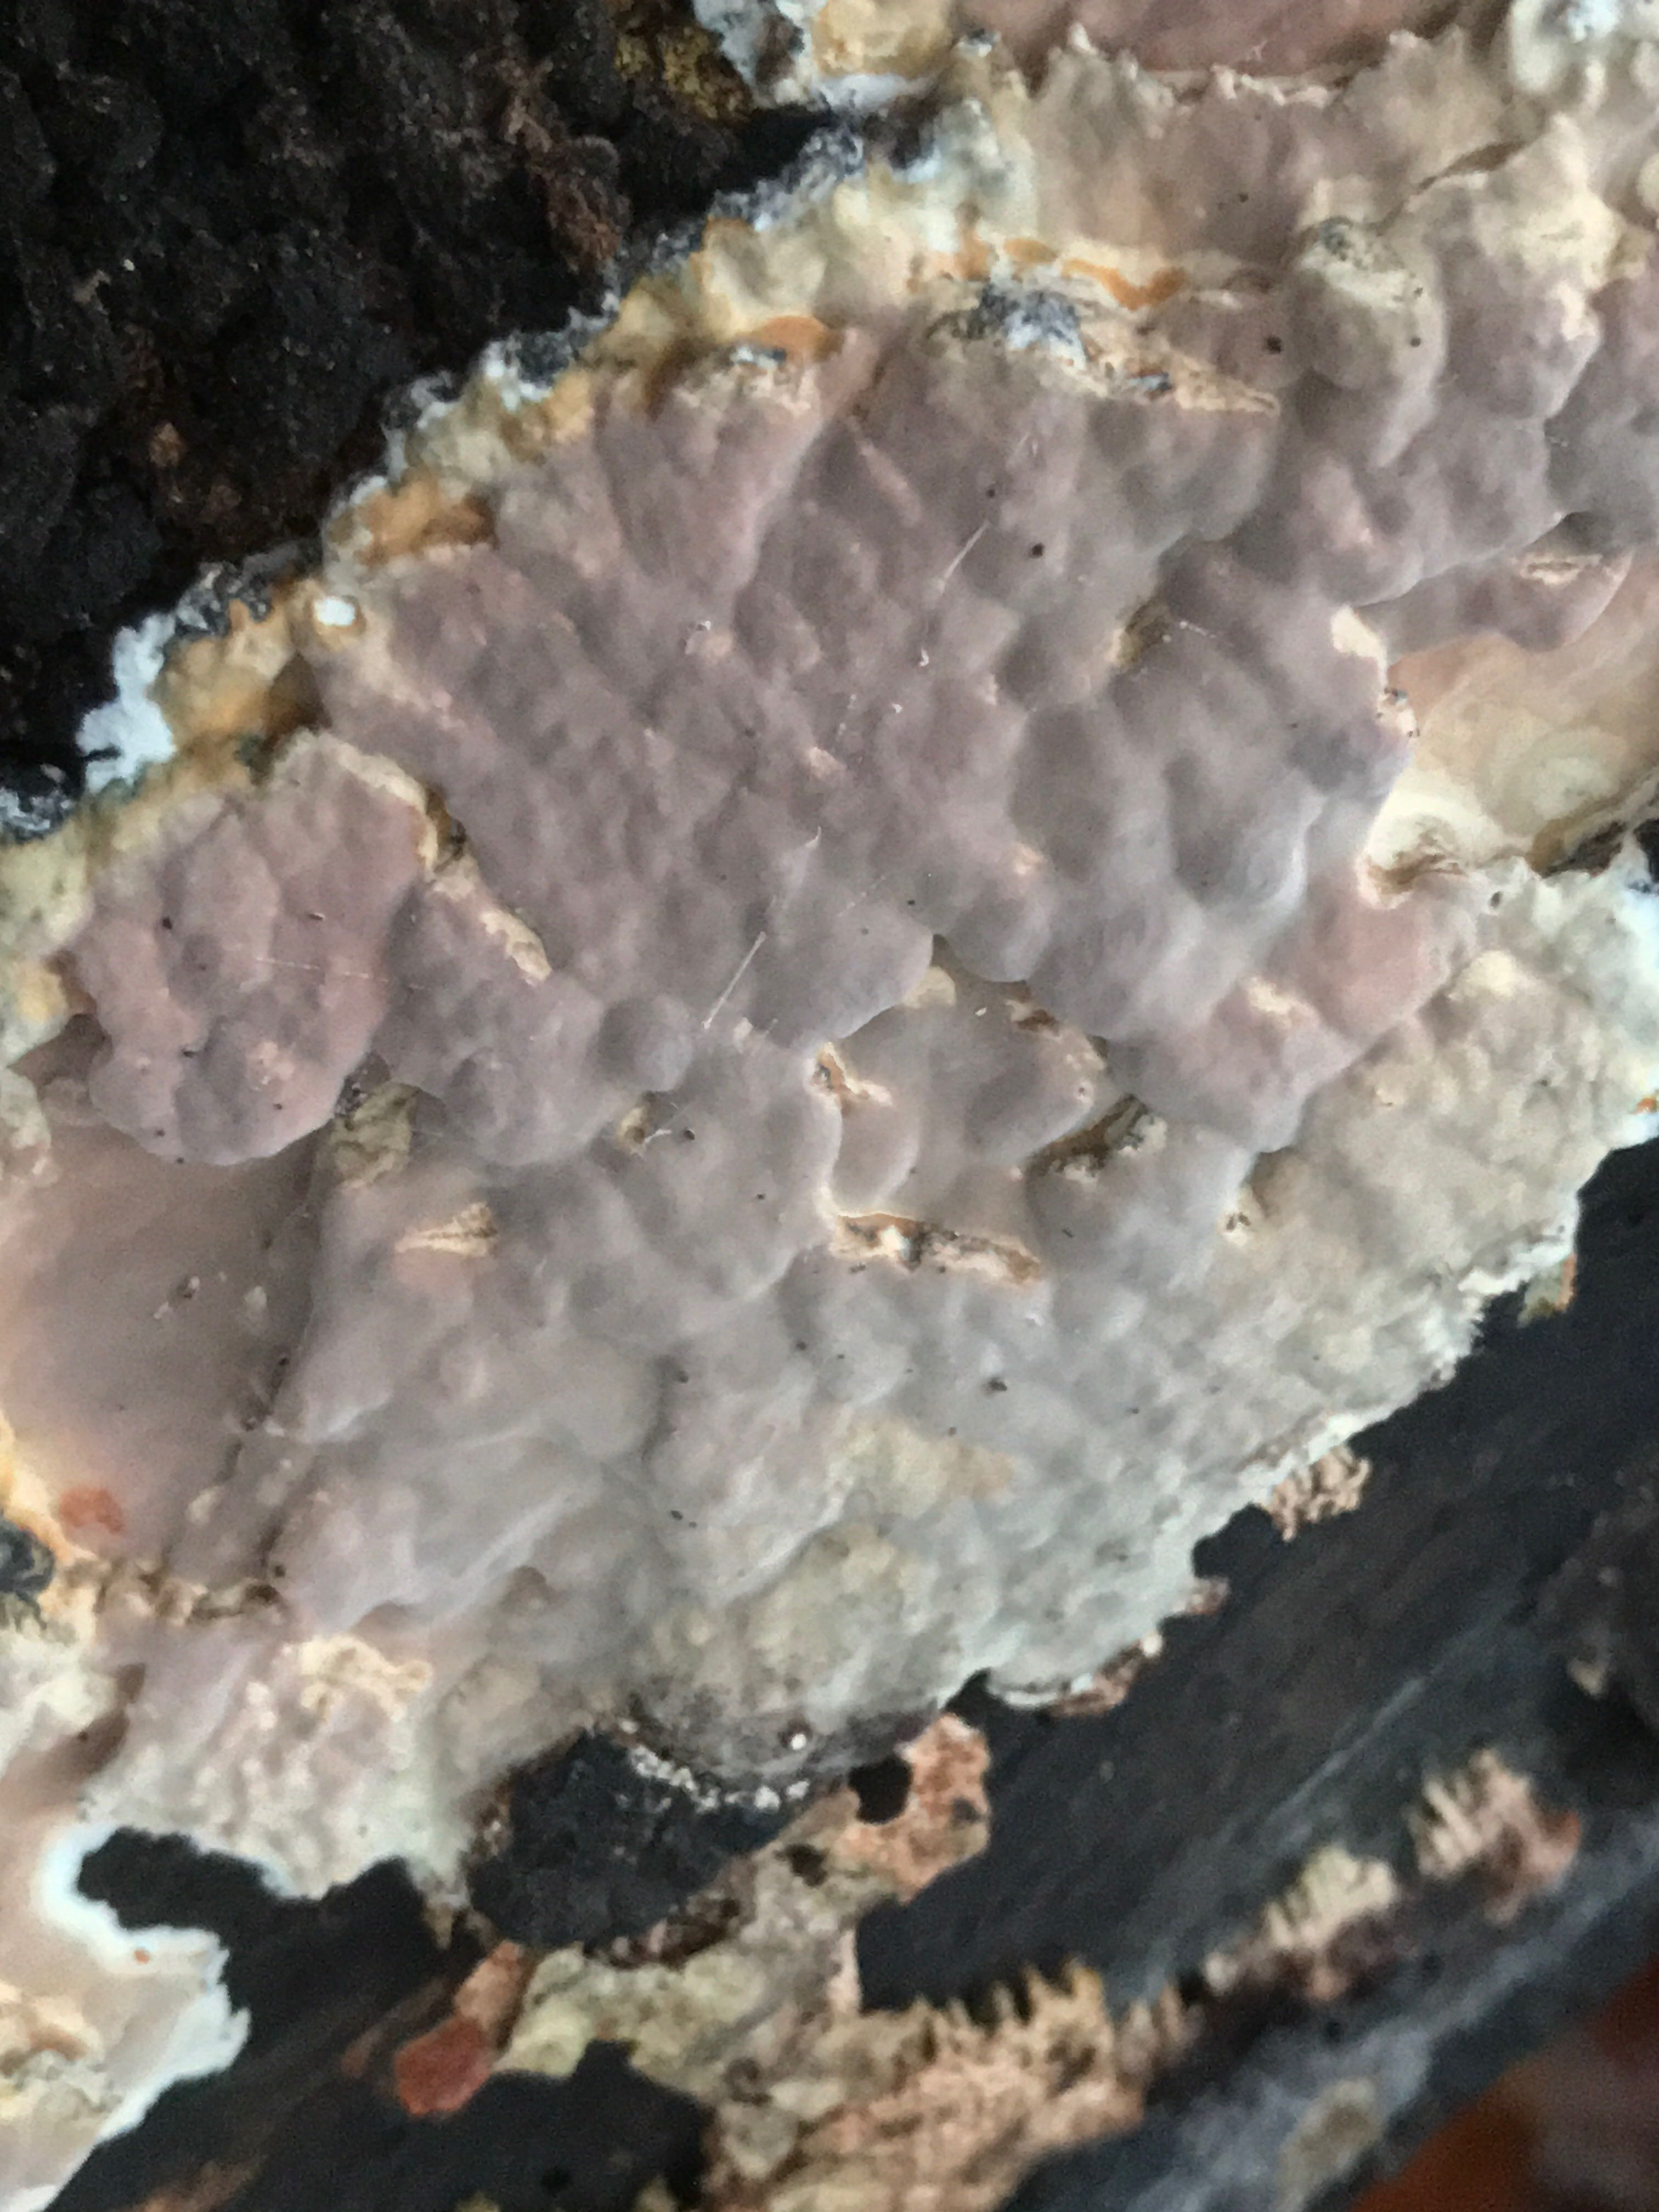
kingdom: Fungi
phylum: Basidiomycota
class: Agaricomycetes
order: Russulales
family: Peniophoraceae
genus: Scytinostroma
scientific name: Scytinostroma hemidichophyticum
